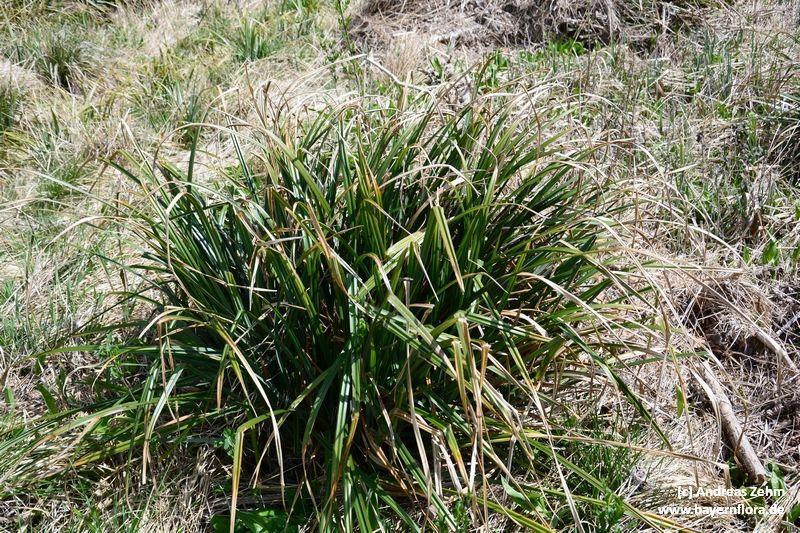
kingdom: Plantae
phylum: Tracheophyta
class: Liliopsida
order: Poales
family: Cyperaceae
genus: Carex
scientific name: Carex agastachys
